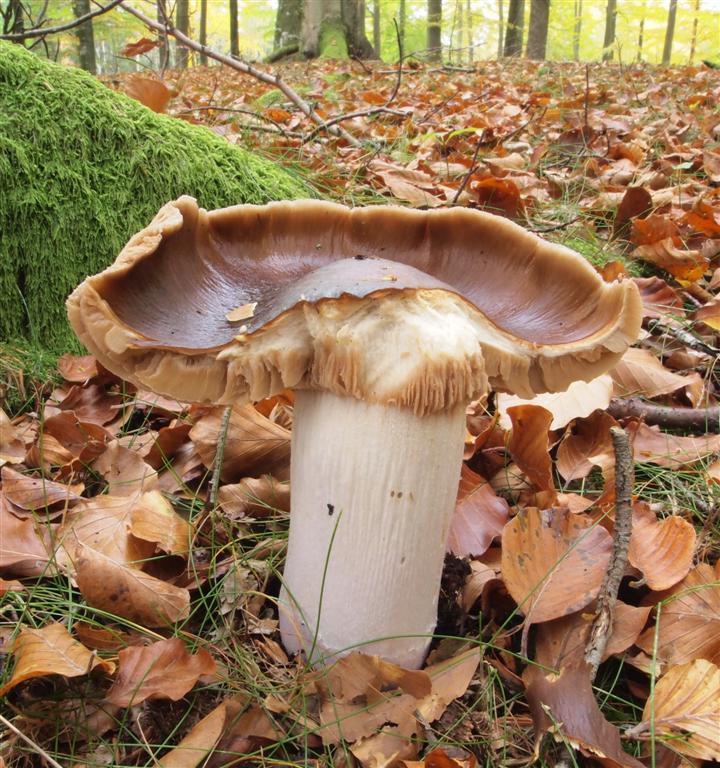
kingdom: Fungi
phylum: Basidiomycota
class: Agaricomycetes
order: Agaricales
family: Cortinariaceae
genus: Cortinarius
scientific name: Cortinarius elatior
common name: høj slørhat
